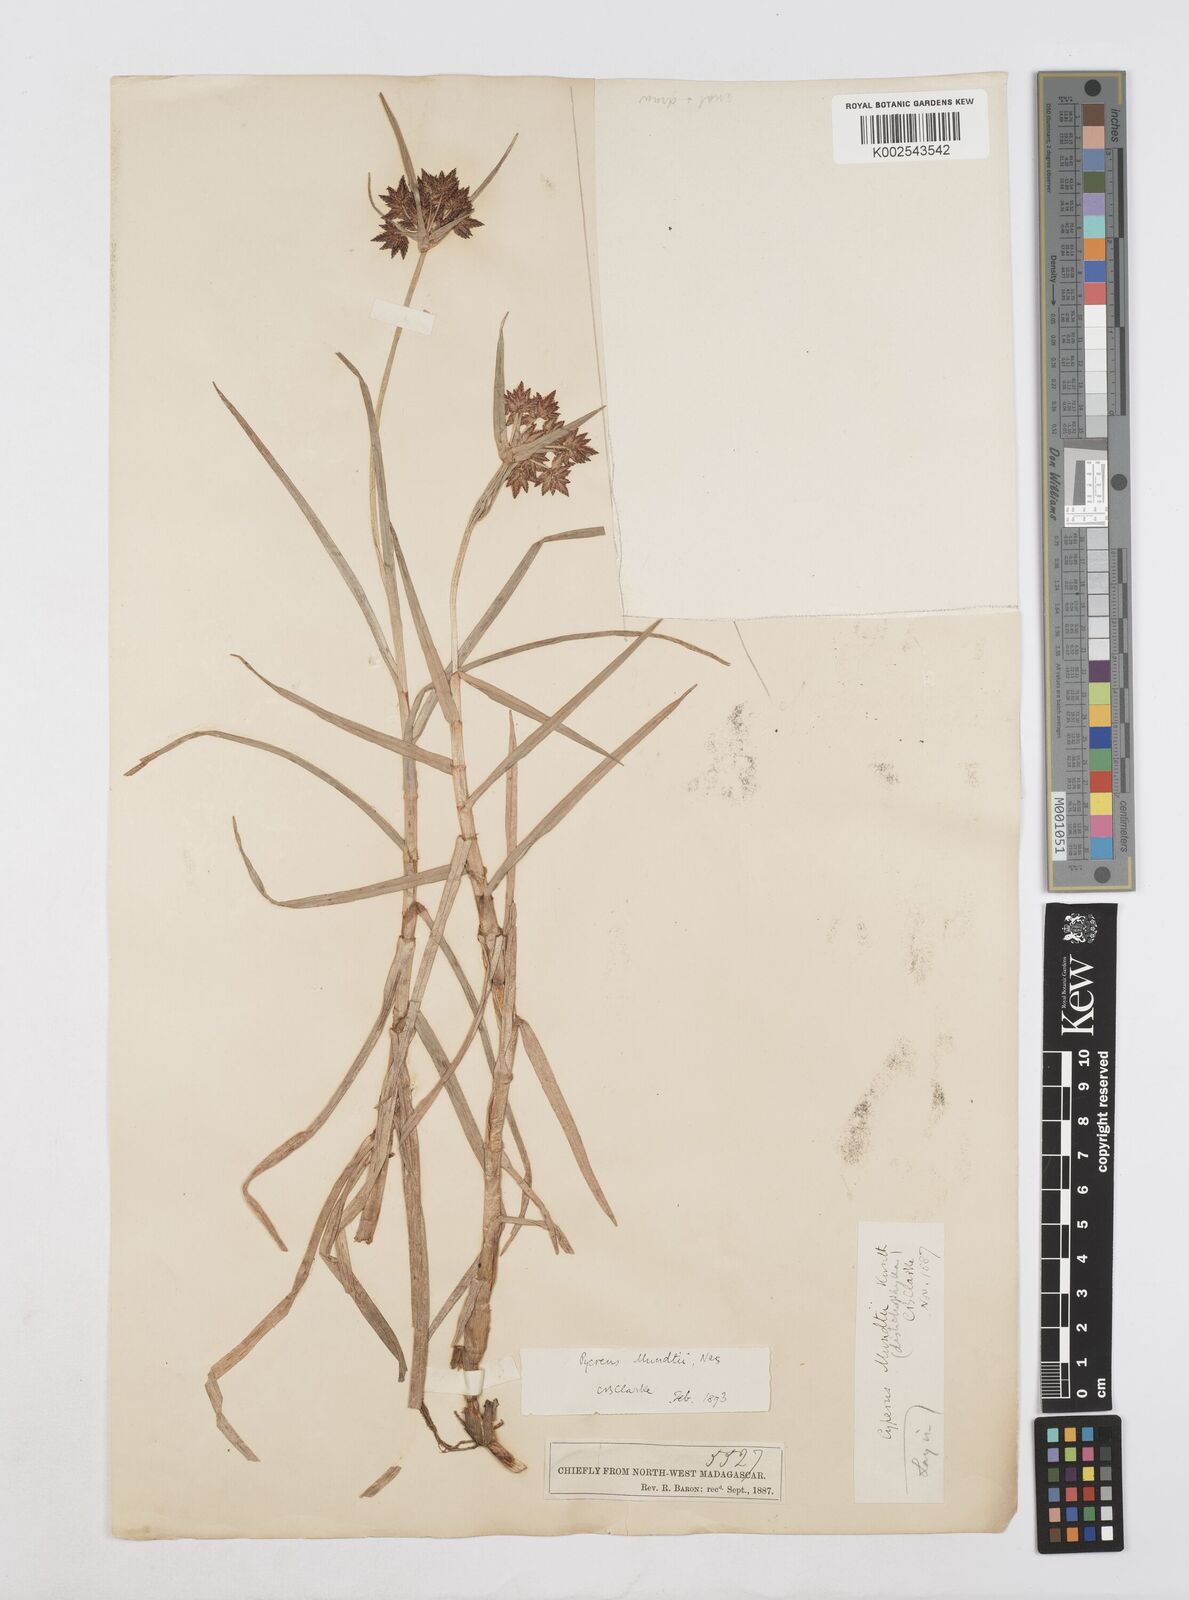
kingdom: Plantae
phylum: Tracheophyta
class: Liliopsida
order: Poales
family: Cyperaceae
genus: Cyperus
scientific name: Cyperus mundii
